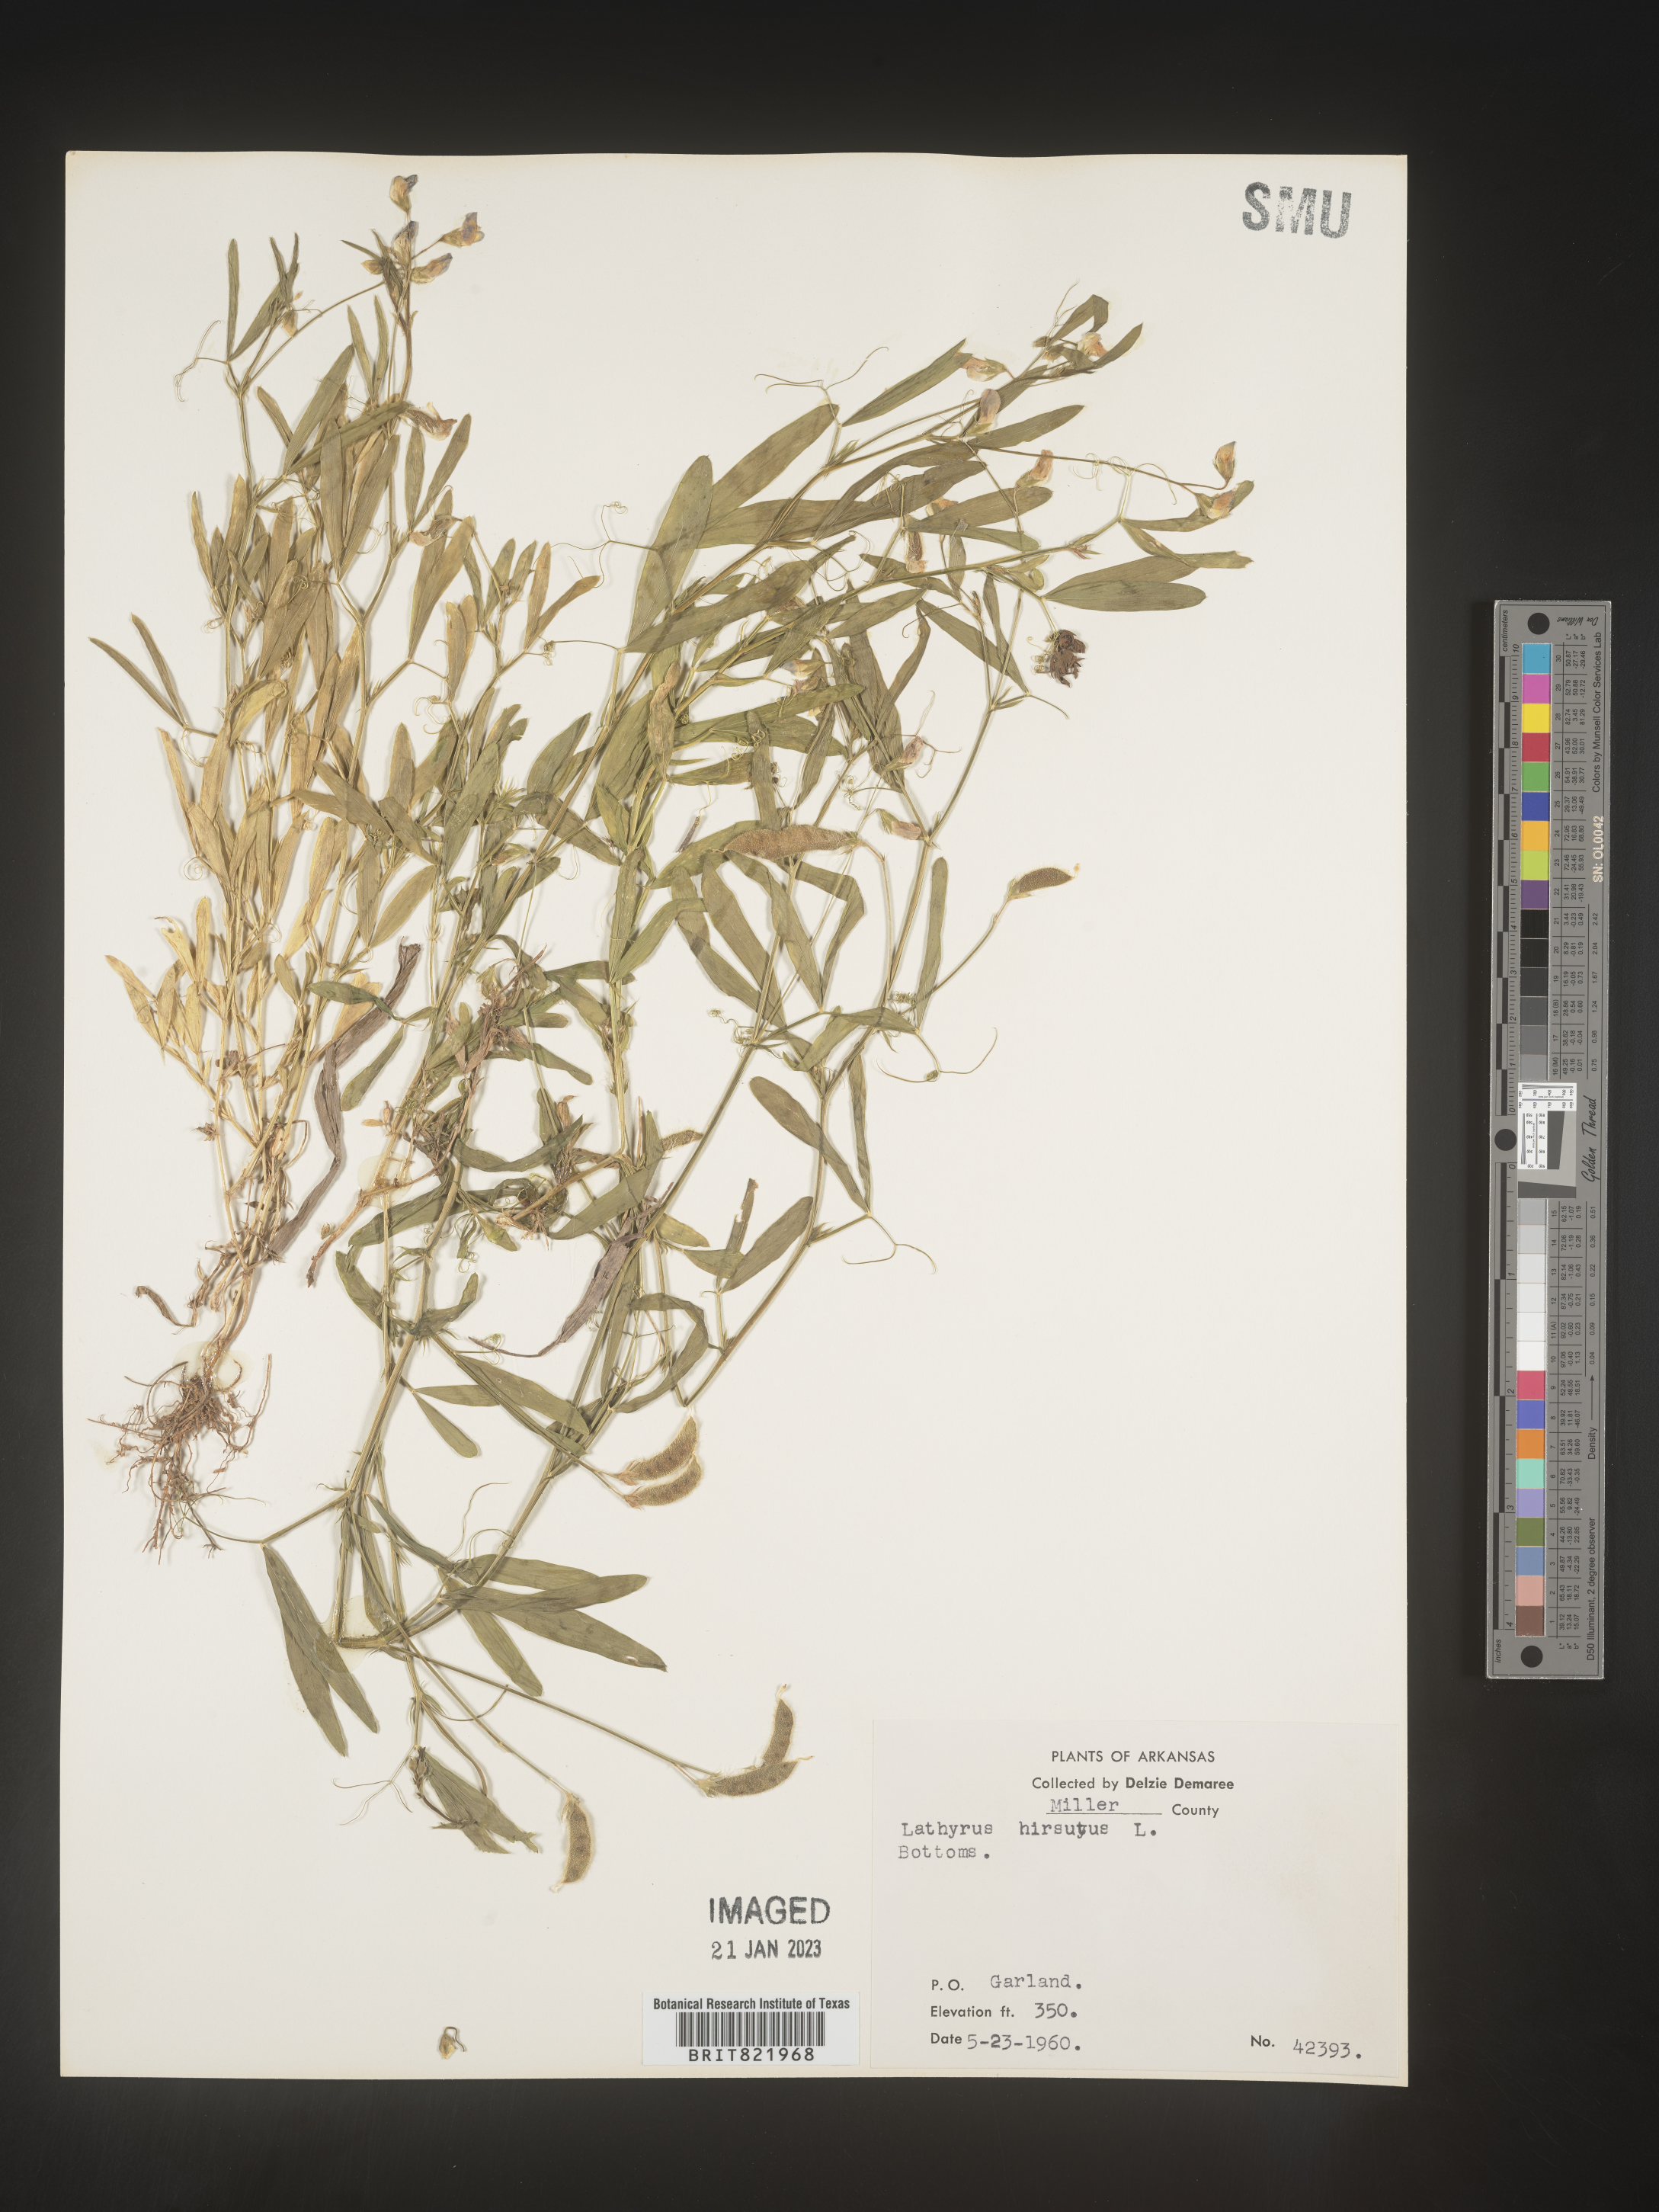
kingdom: Plantae
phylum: Tracheophyta
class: Magnoliopsida
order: Fabales
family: Fabaceae
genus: Lathyrus
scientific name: Lathyrus hirsutus
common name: Hairy vetchling
